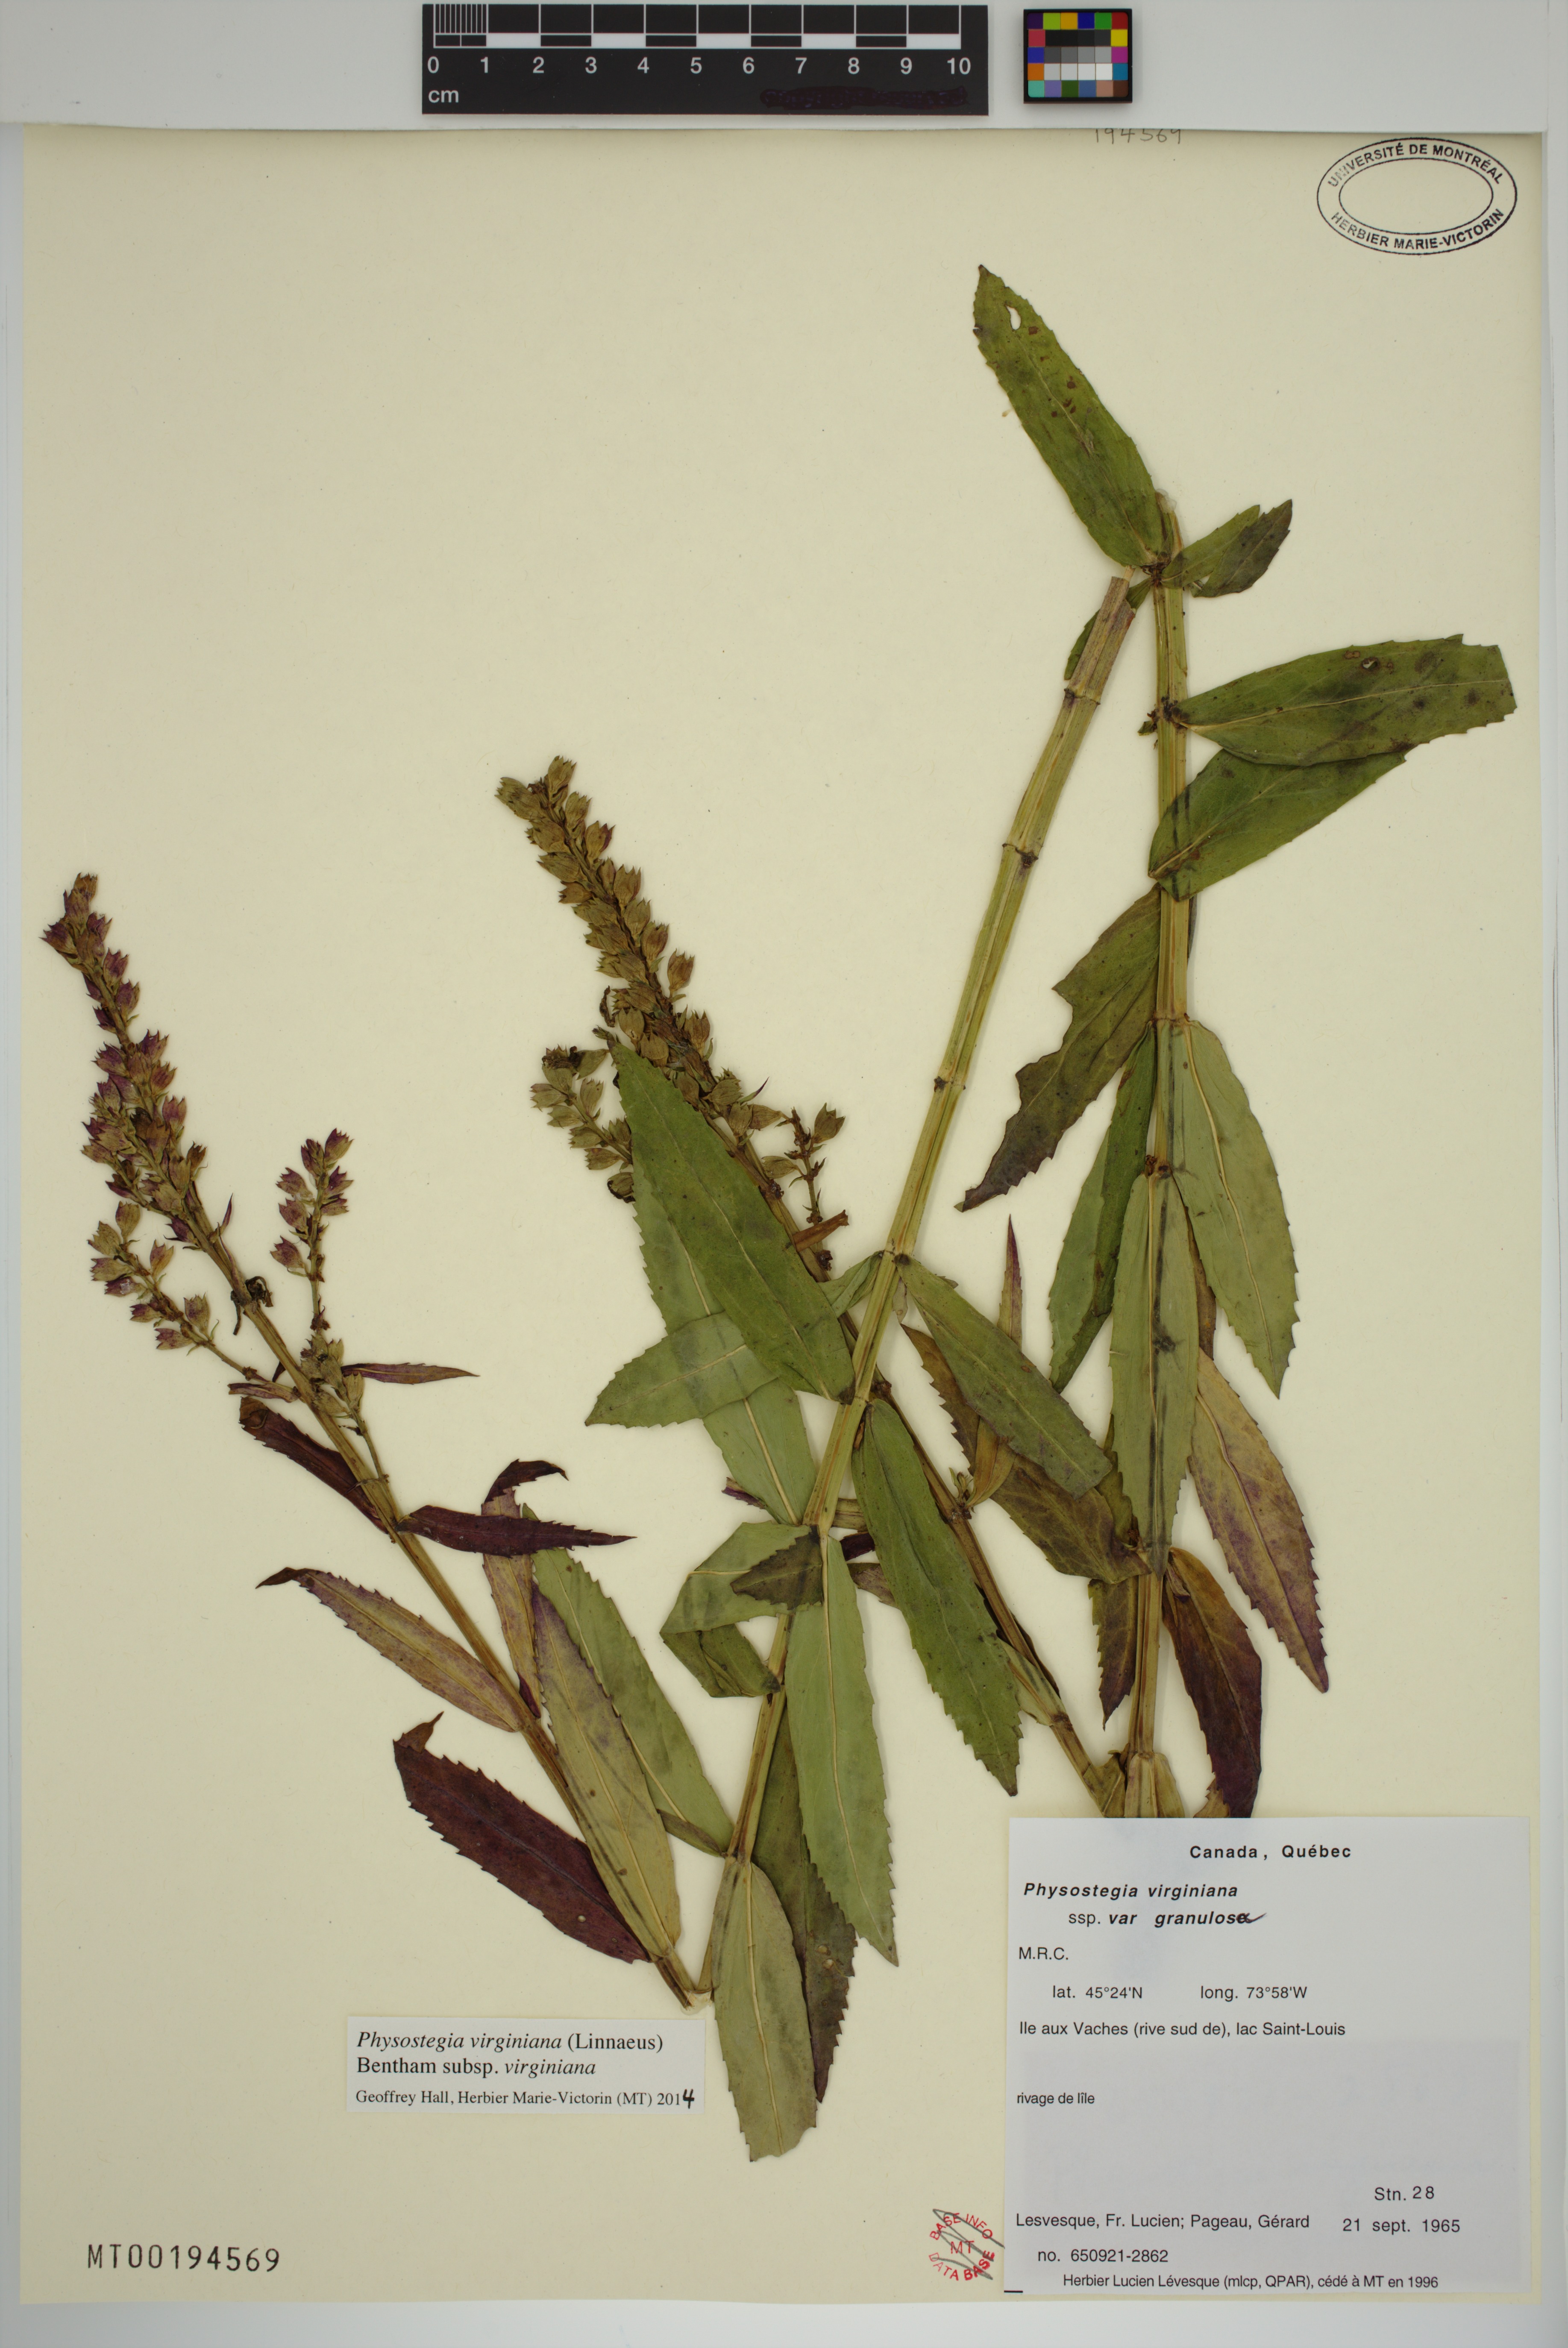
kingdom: Plantae
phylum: Tracheophyta
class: Magnoliopsida
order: Lamiales
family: Lamiaceae
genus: Physostegia
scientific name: Physostegia virginiana
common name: Obedient-plant
